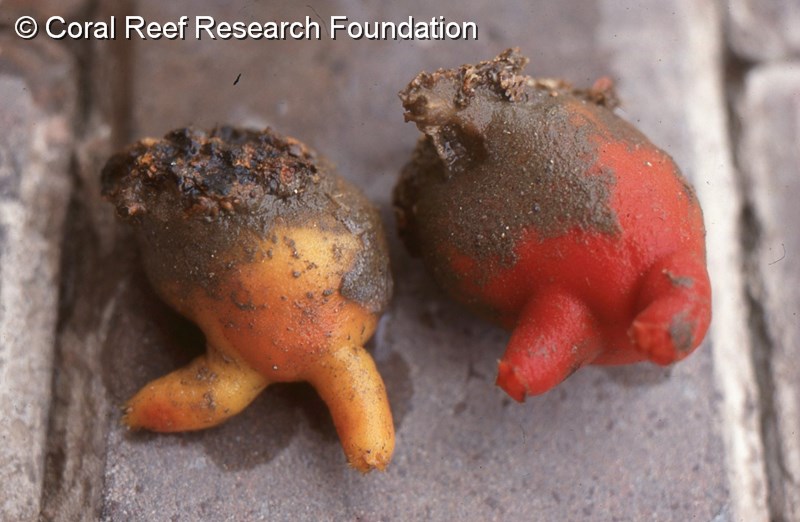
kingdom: Animalia
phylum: Chordata
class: Ascidiacea
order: Phlebobranchia
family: Ascidiidae
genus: Ascidia
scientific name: Ascidia incrassata
